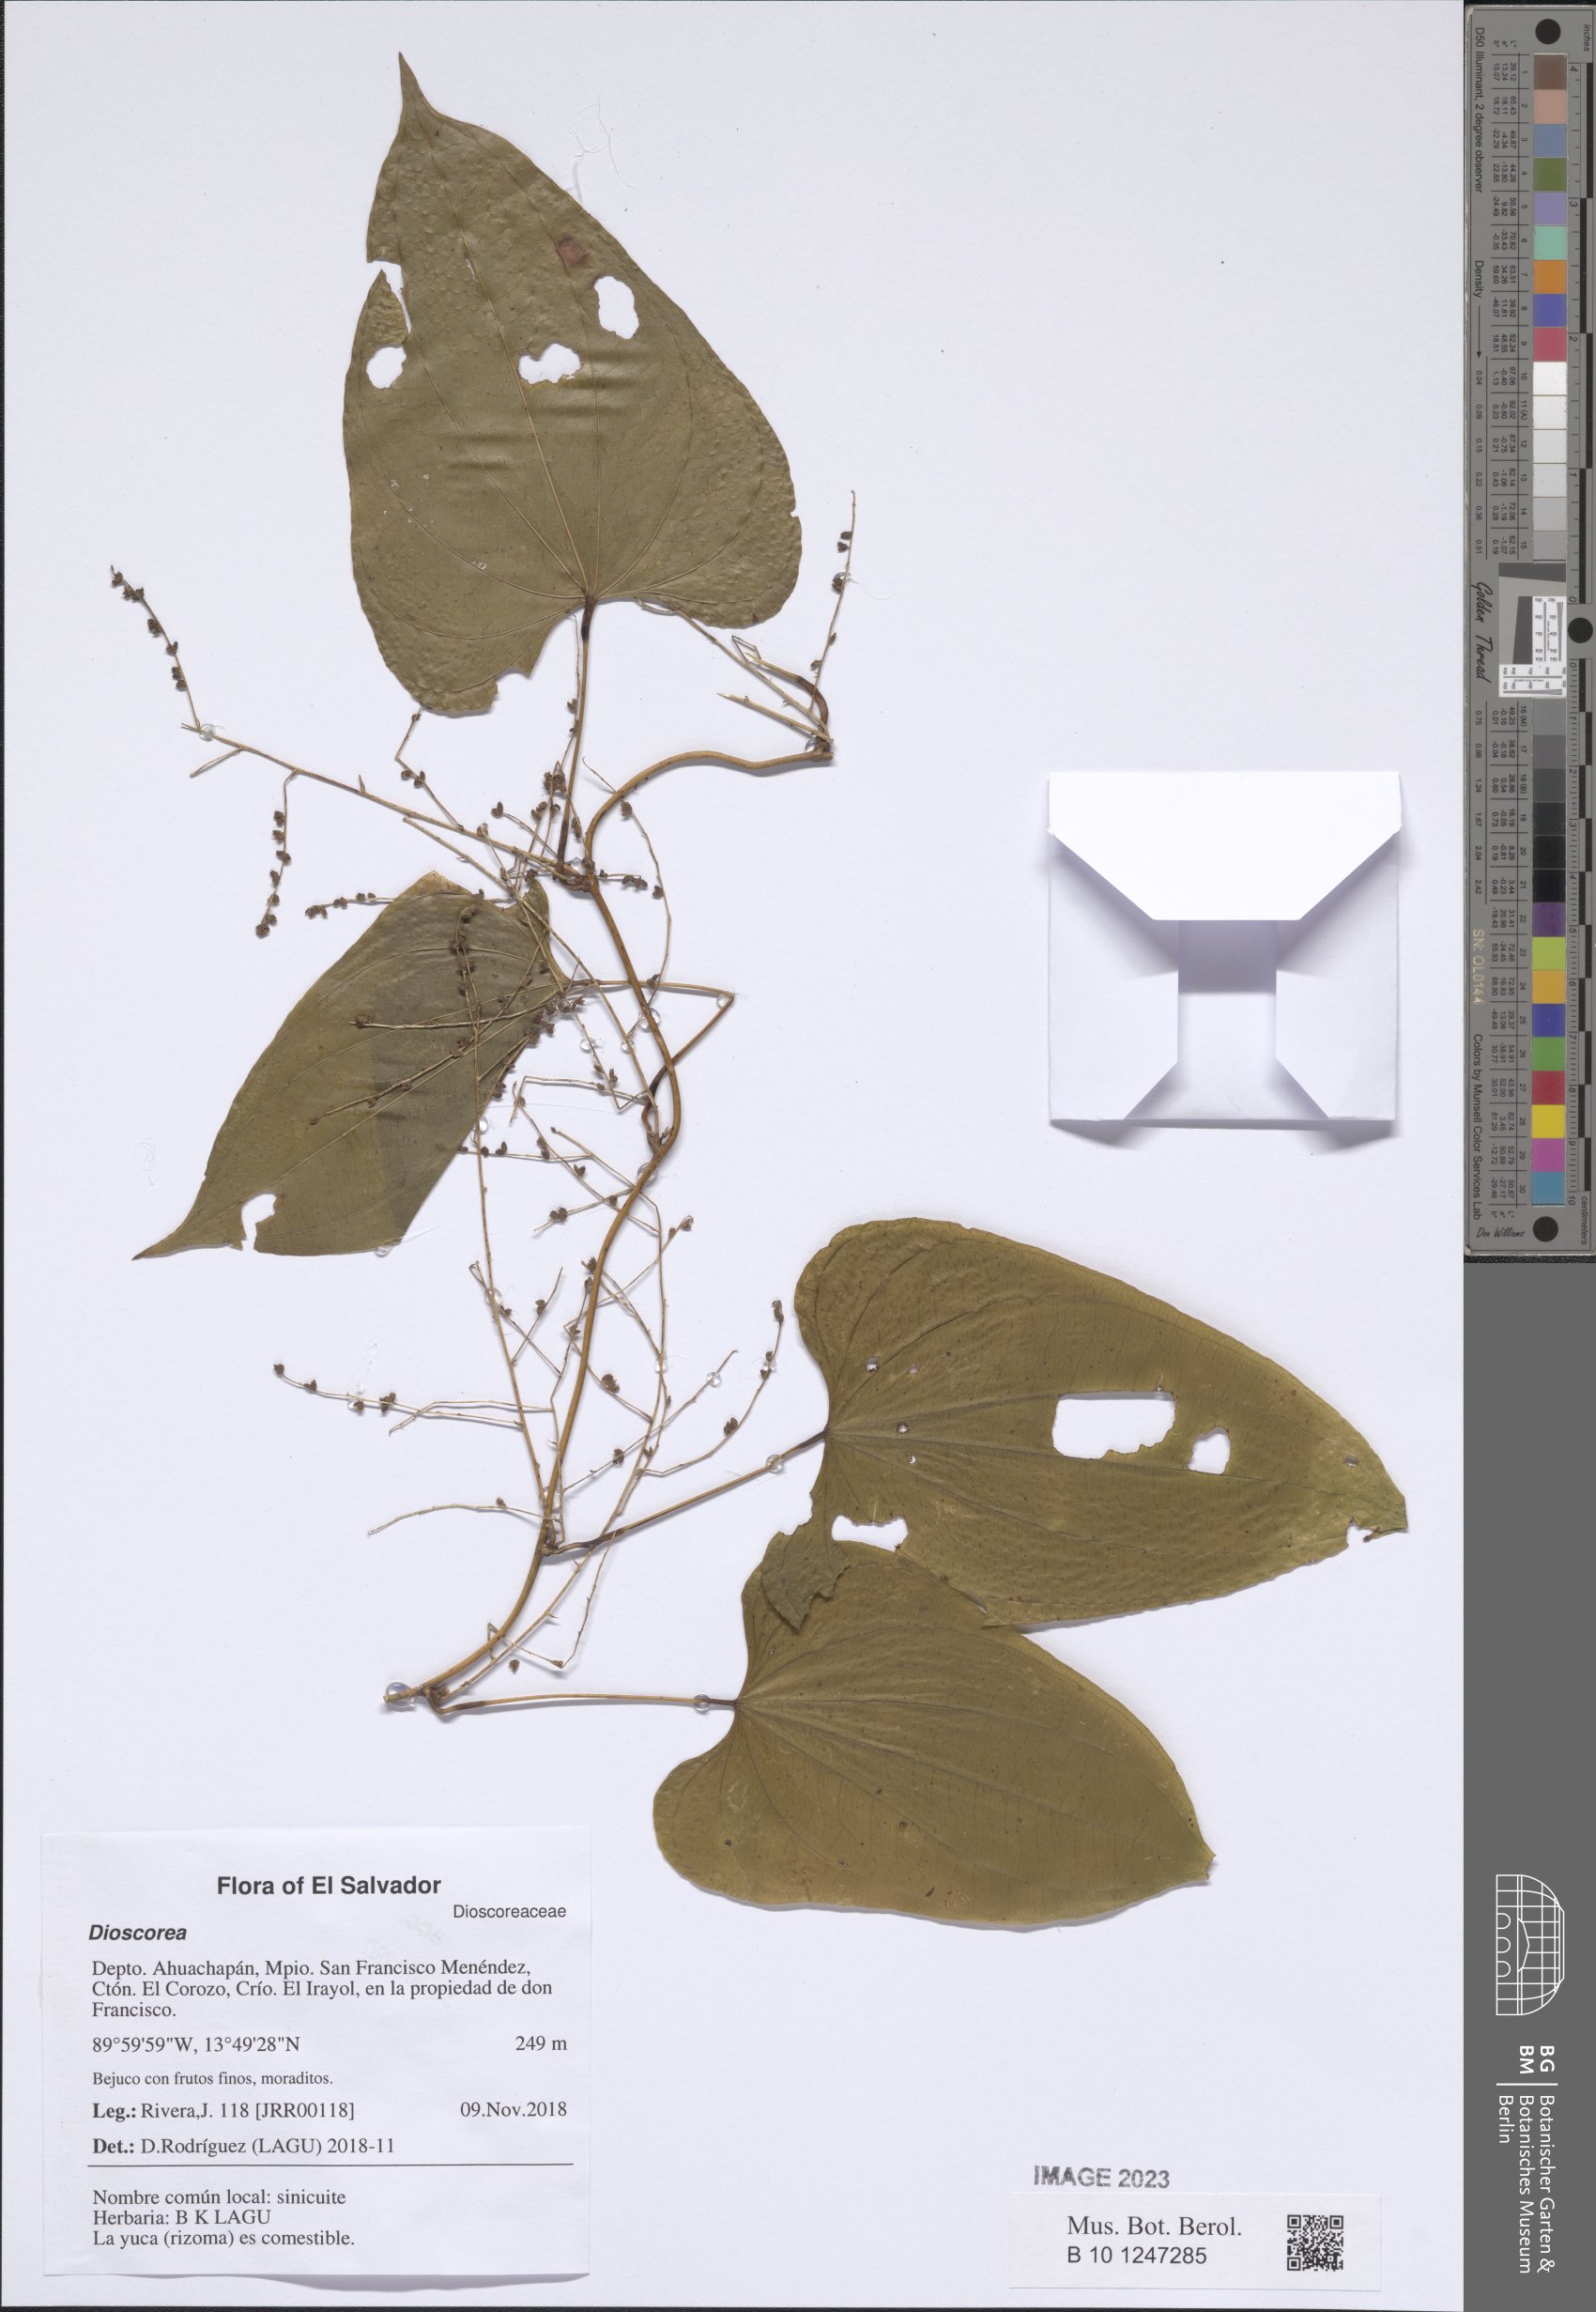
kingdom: Plantae
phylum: Tracheophyta
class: Liliopsida
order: Dioscoreales
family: Dioscoreaceae
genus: Dioscorea
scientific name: Dioscorea
